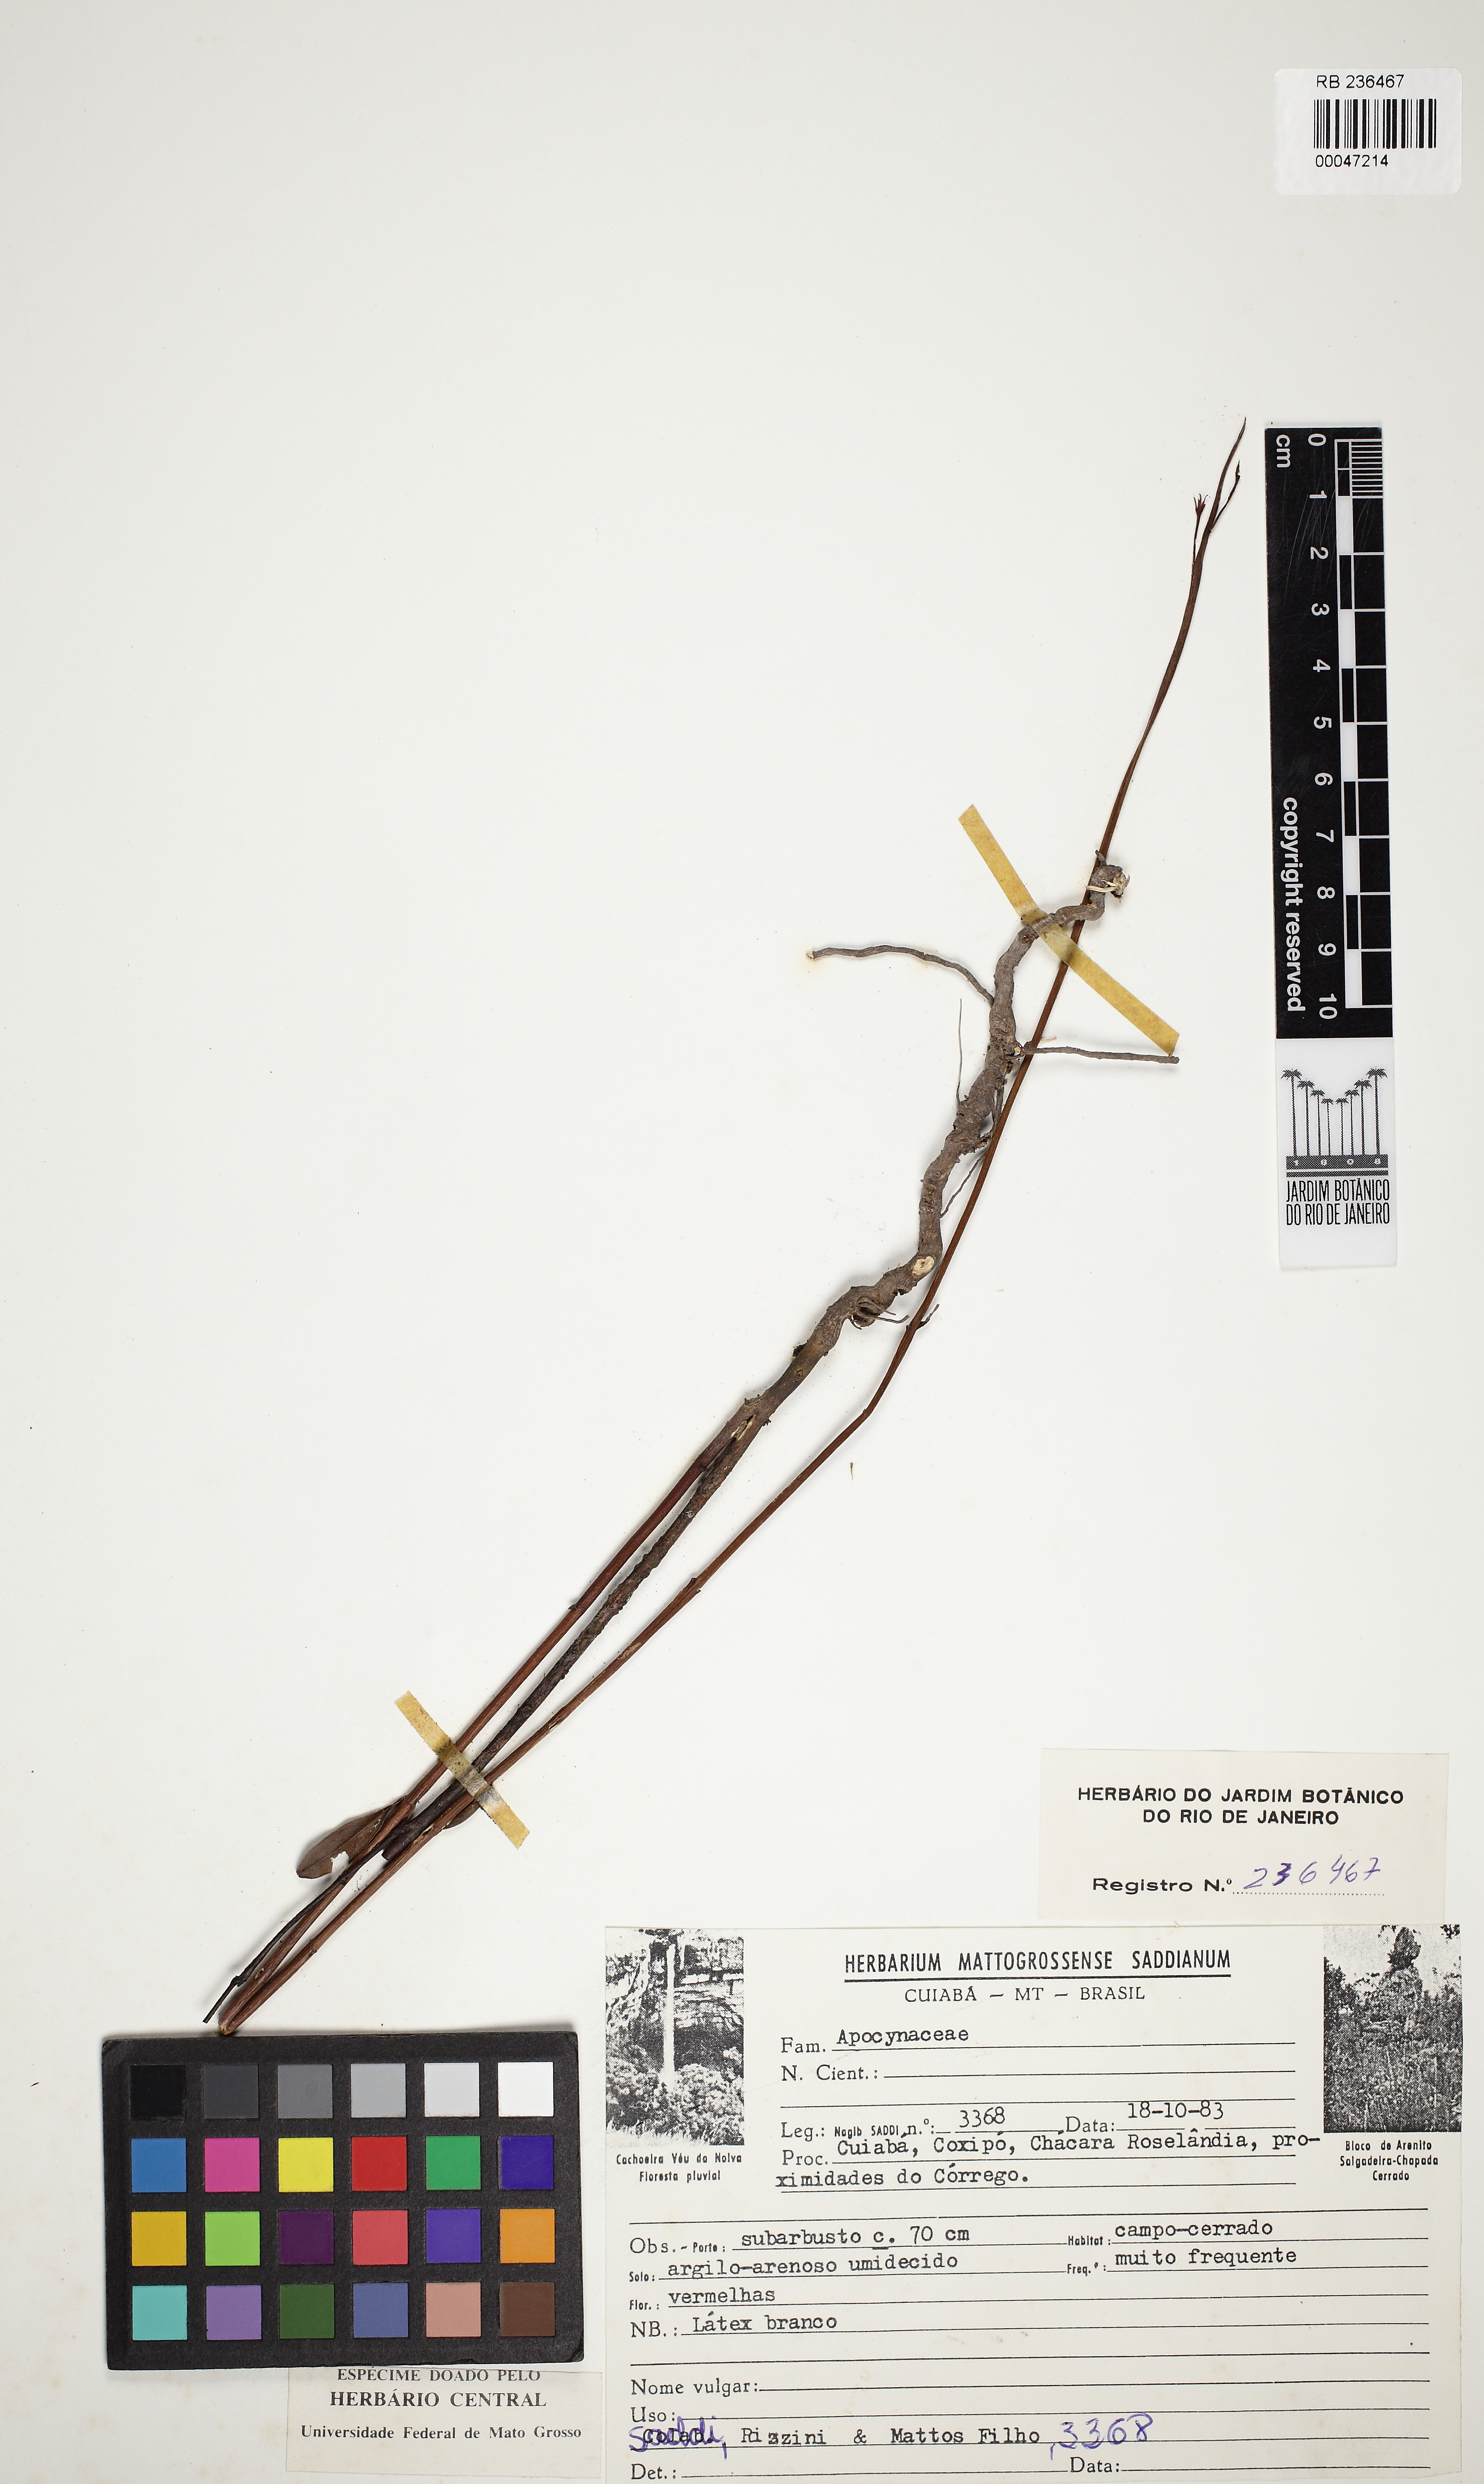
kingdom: Plantae
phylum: Tracheophyta
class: Magnoliopsida
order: Gentianales
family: Apocynaceae
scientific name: Apocynaceae
